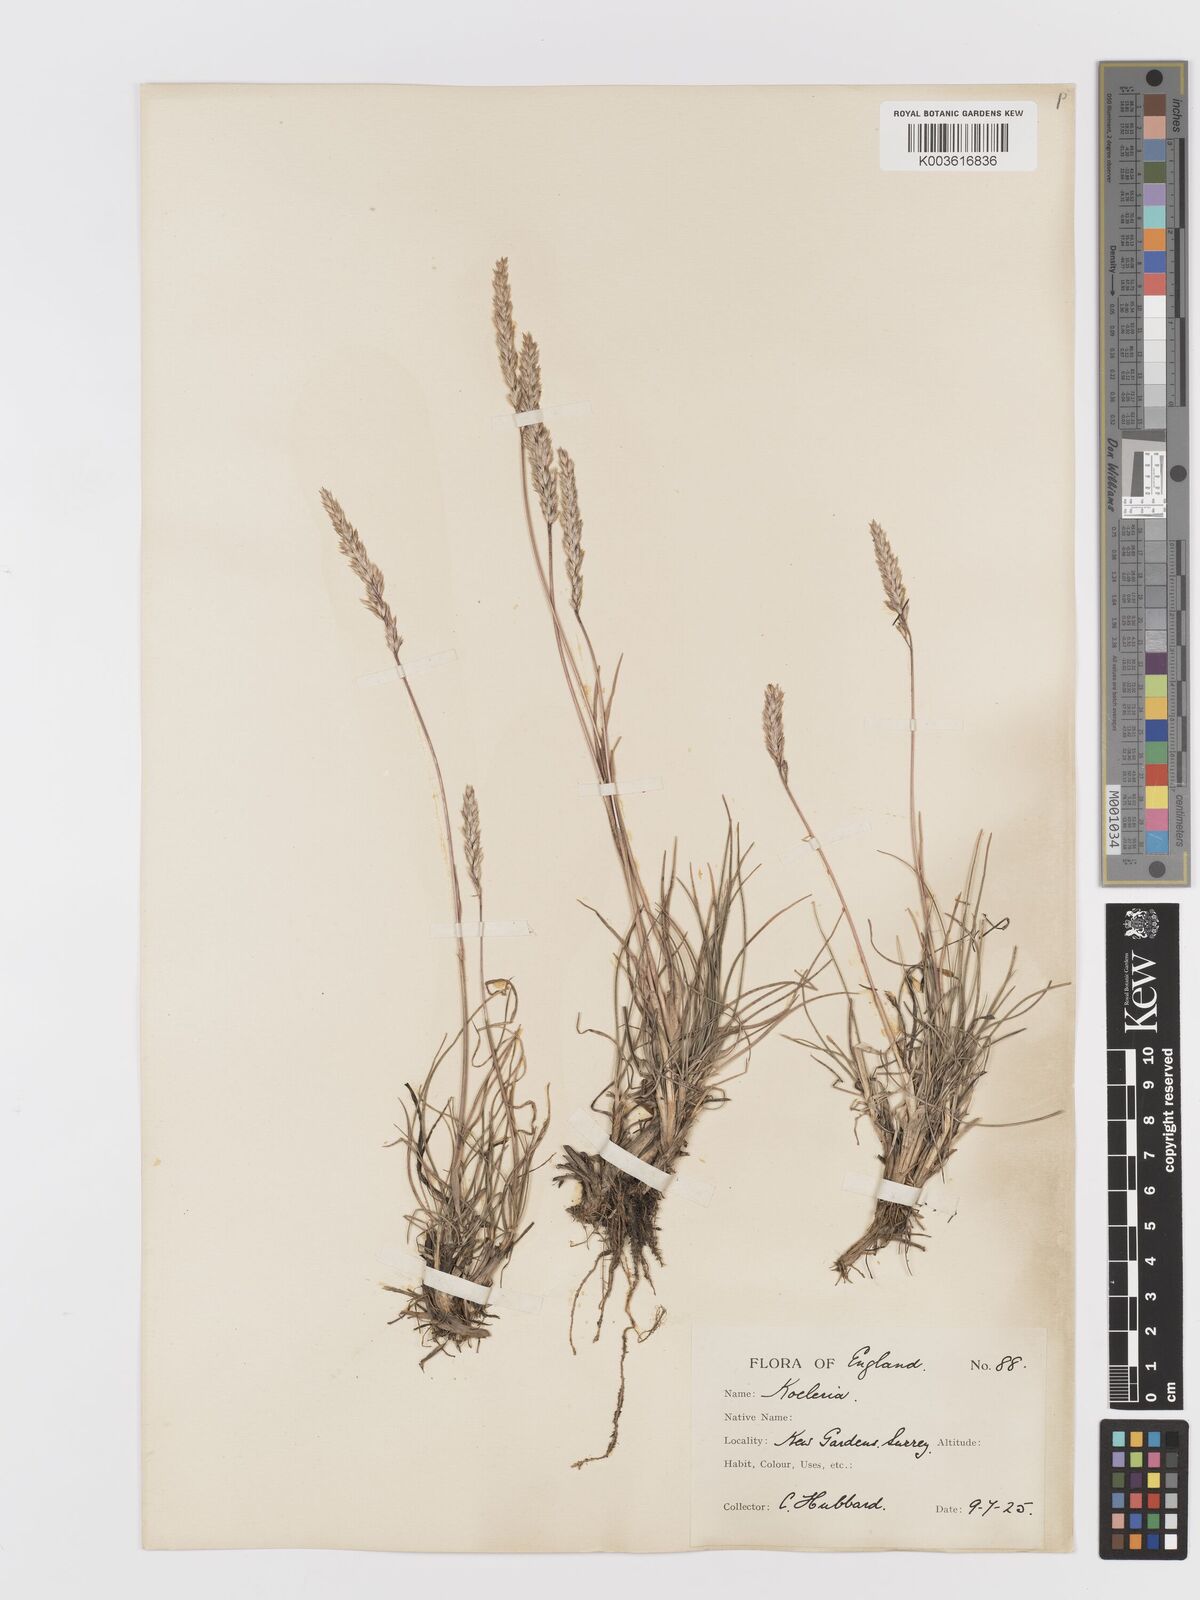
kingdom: Plantae
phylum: Tracheophyta
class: Liliopsida
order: Poales
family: Poaceae
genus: Koeleria
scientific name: Koeleria
